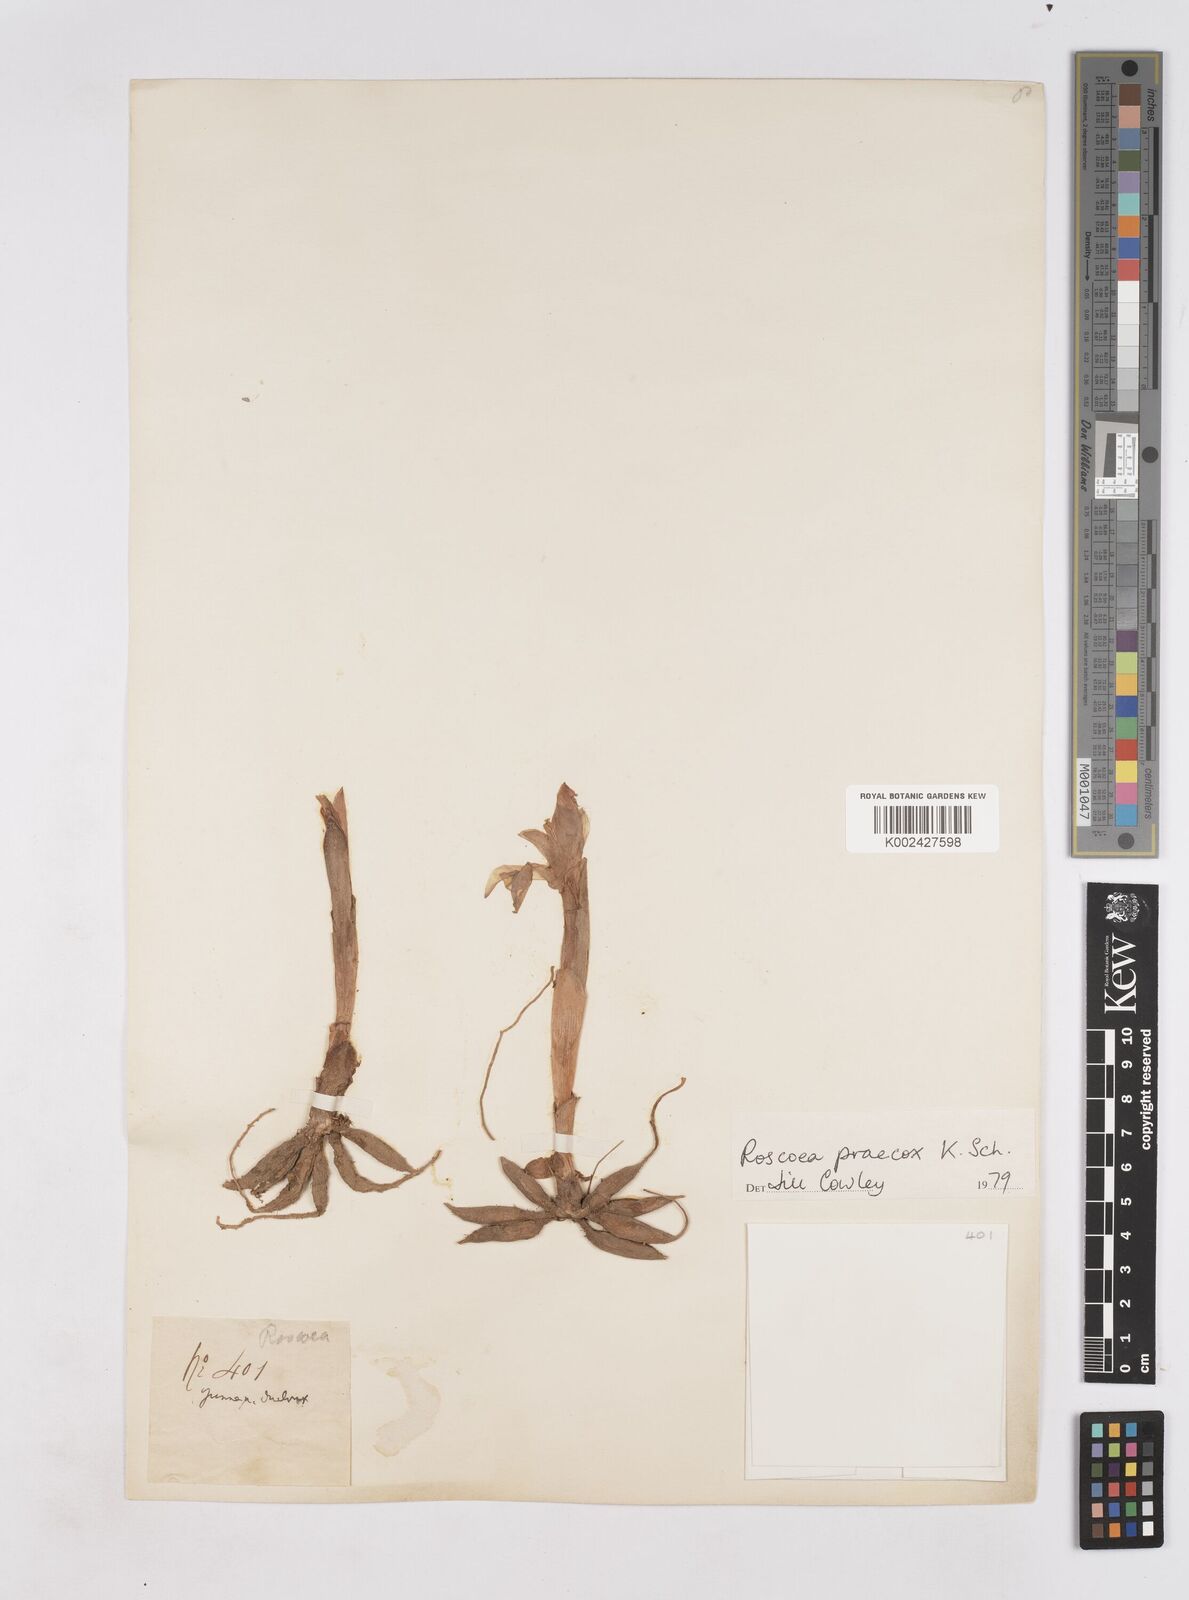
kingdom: Plantae
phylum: Tracheophyta
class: Liliopsida
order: Zingiberales
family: Zingiberaceae
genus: Roscoea
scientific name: Roscoea praecox
